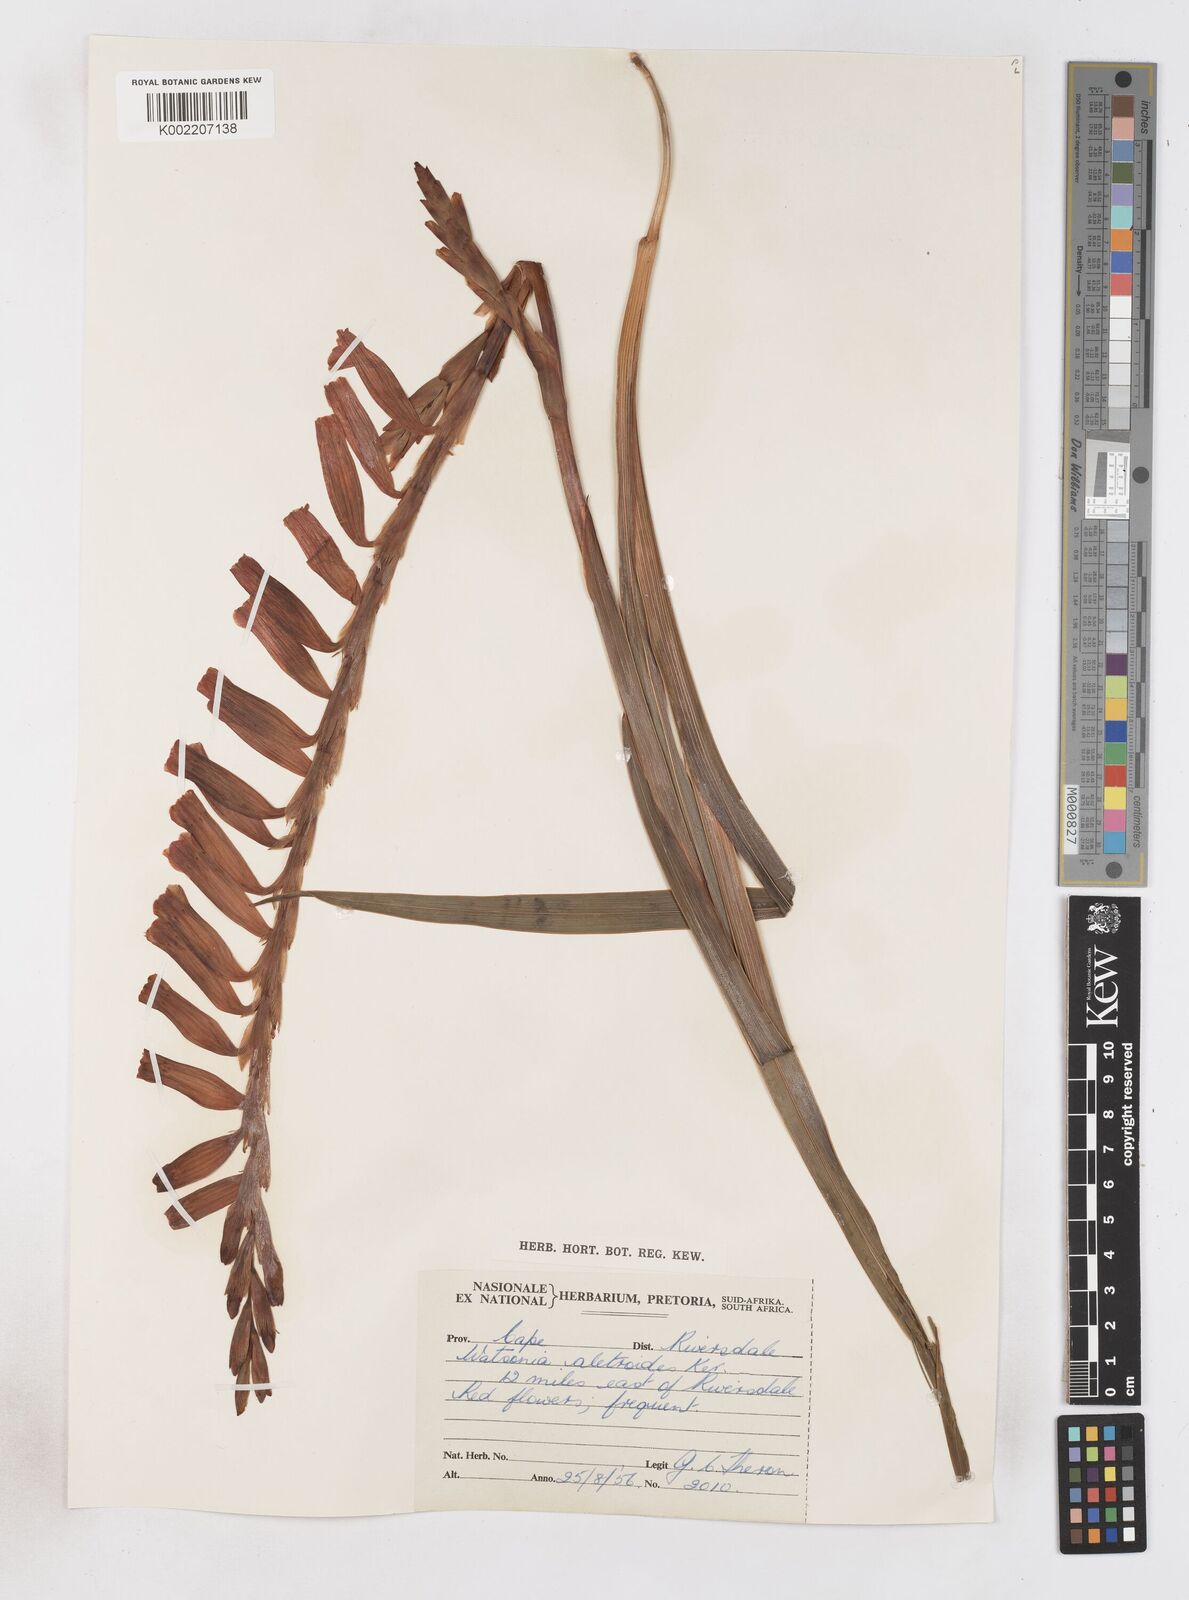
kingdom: Plantae
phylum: Tracheophyta
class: Liliopsida
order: Asparagales
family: Iridaceae
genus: Watsonia
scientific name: Watsonia aletroides
